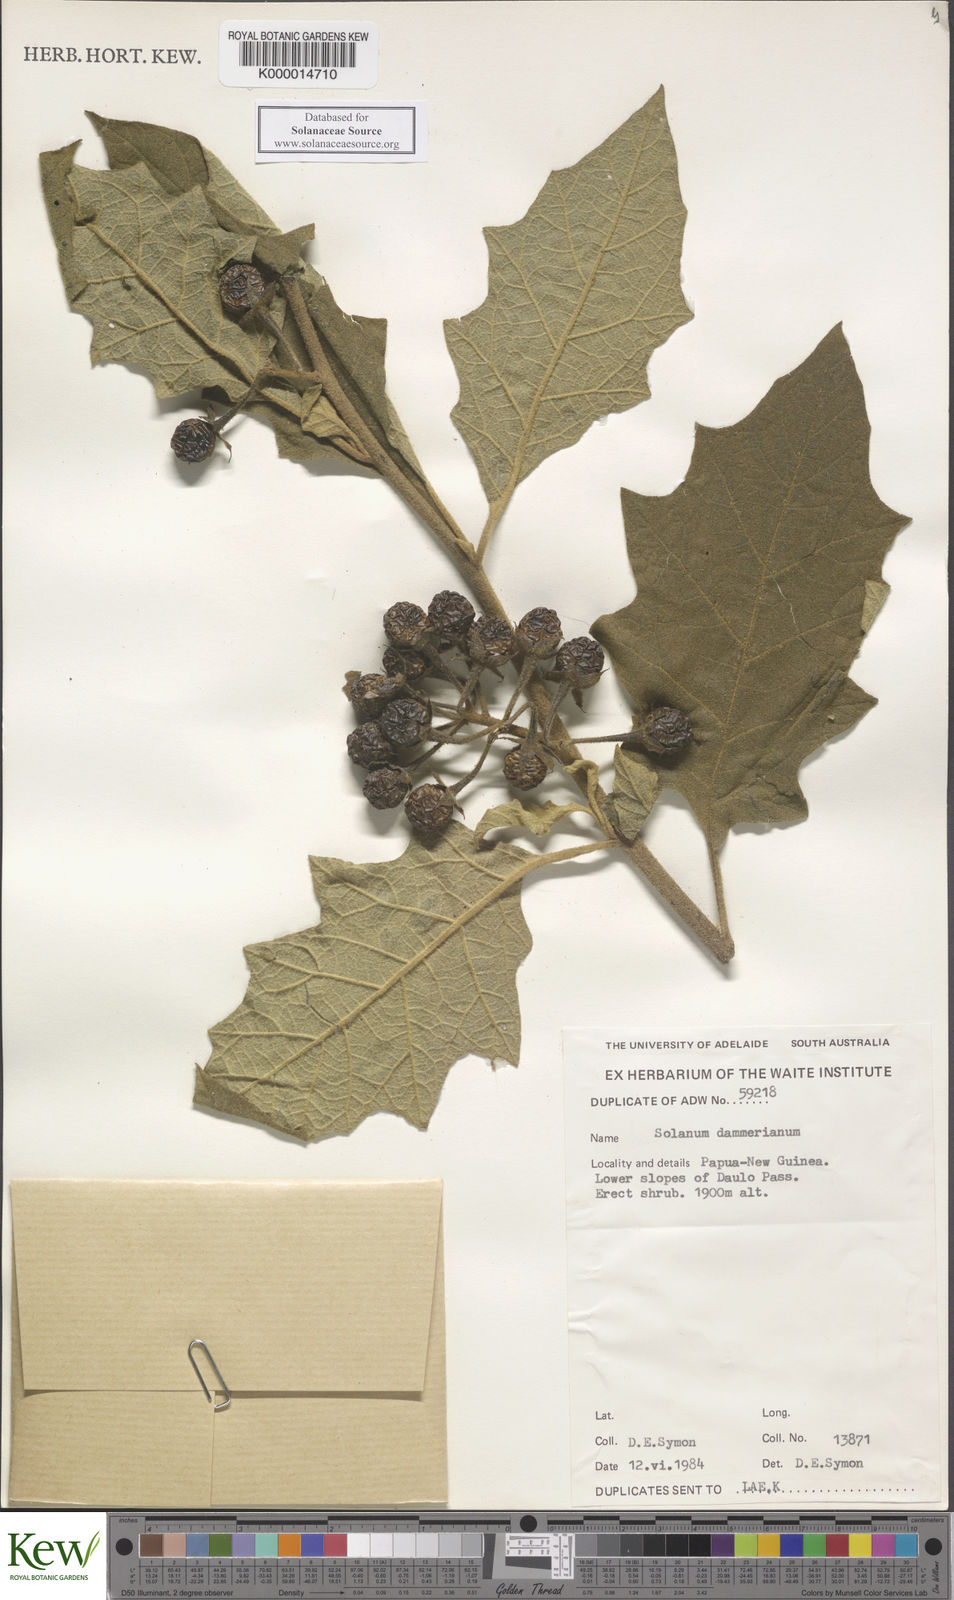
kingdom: Plantae
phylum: Tracheophyta
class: Magnoliopsida
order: Solanales
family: Solanaceae
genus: Solanum
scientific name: Solanum dammerianum
